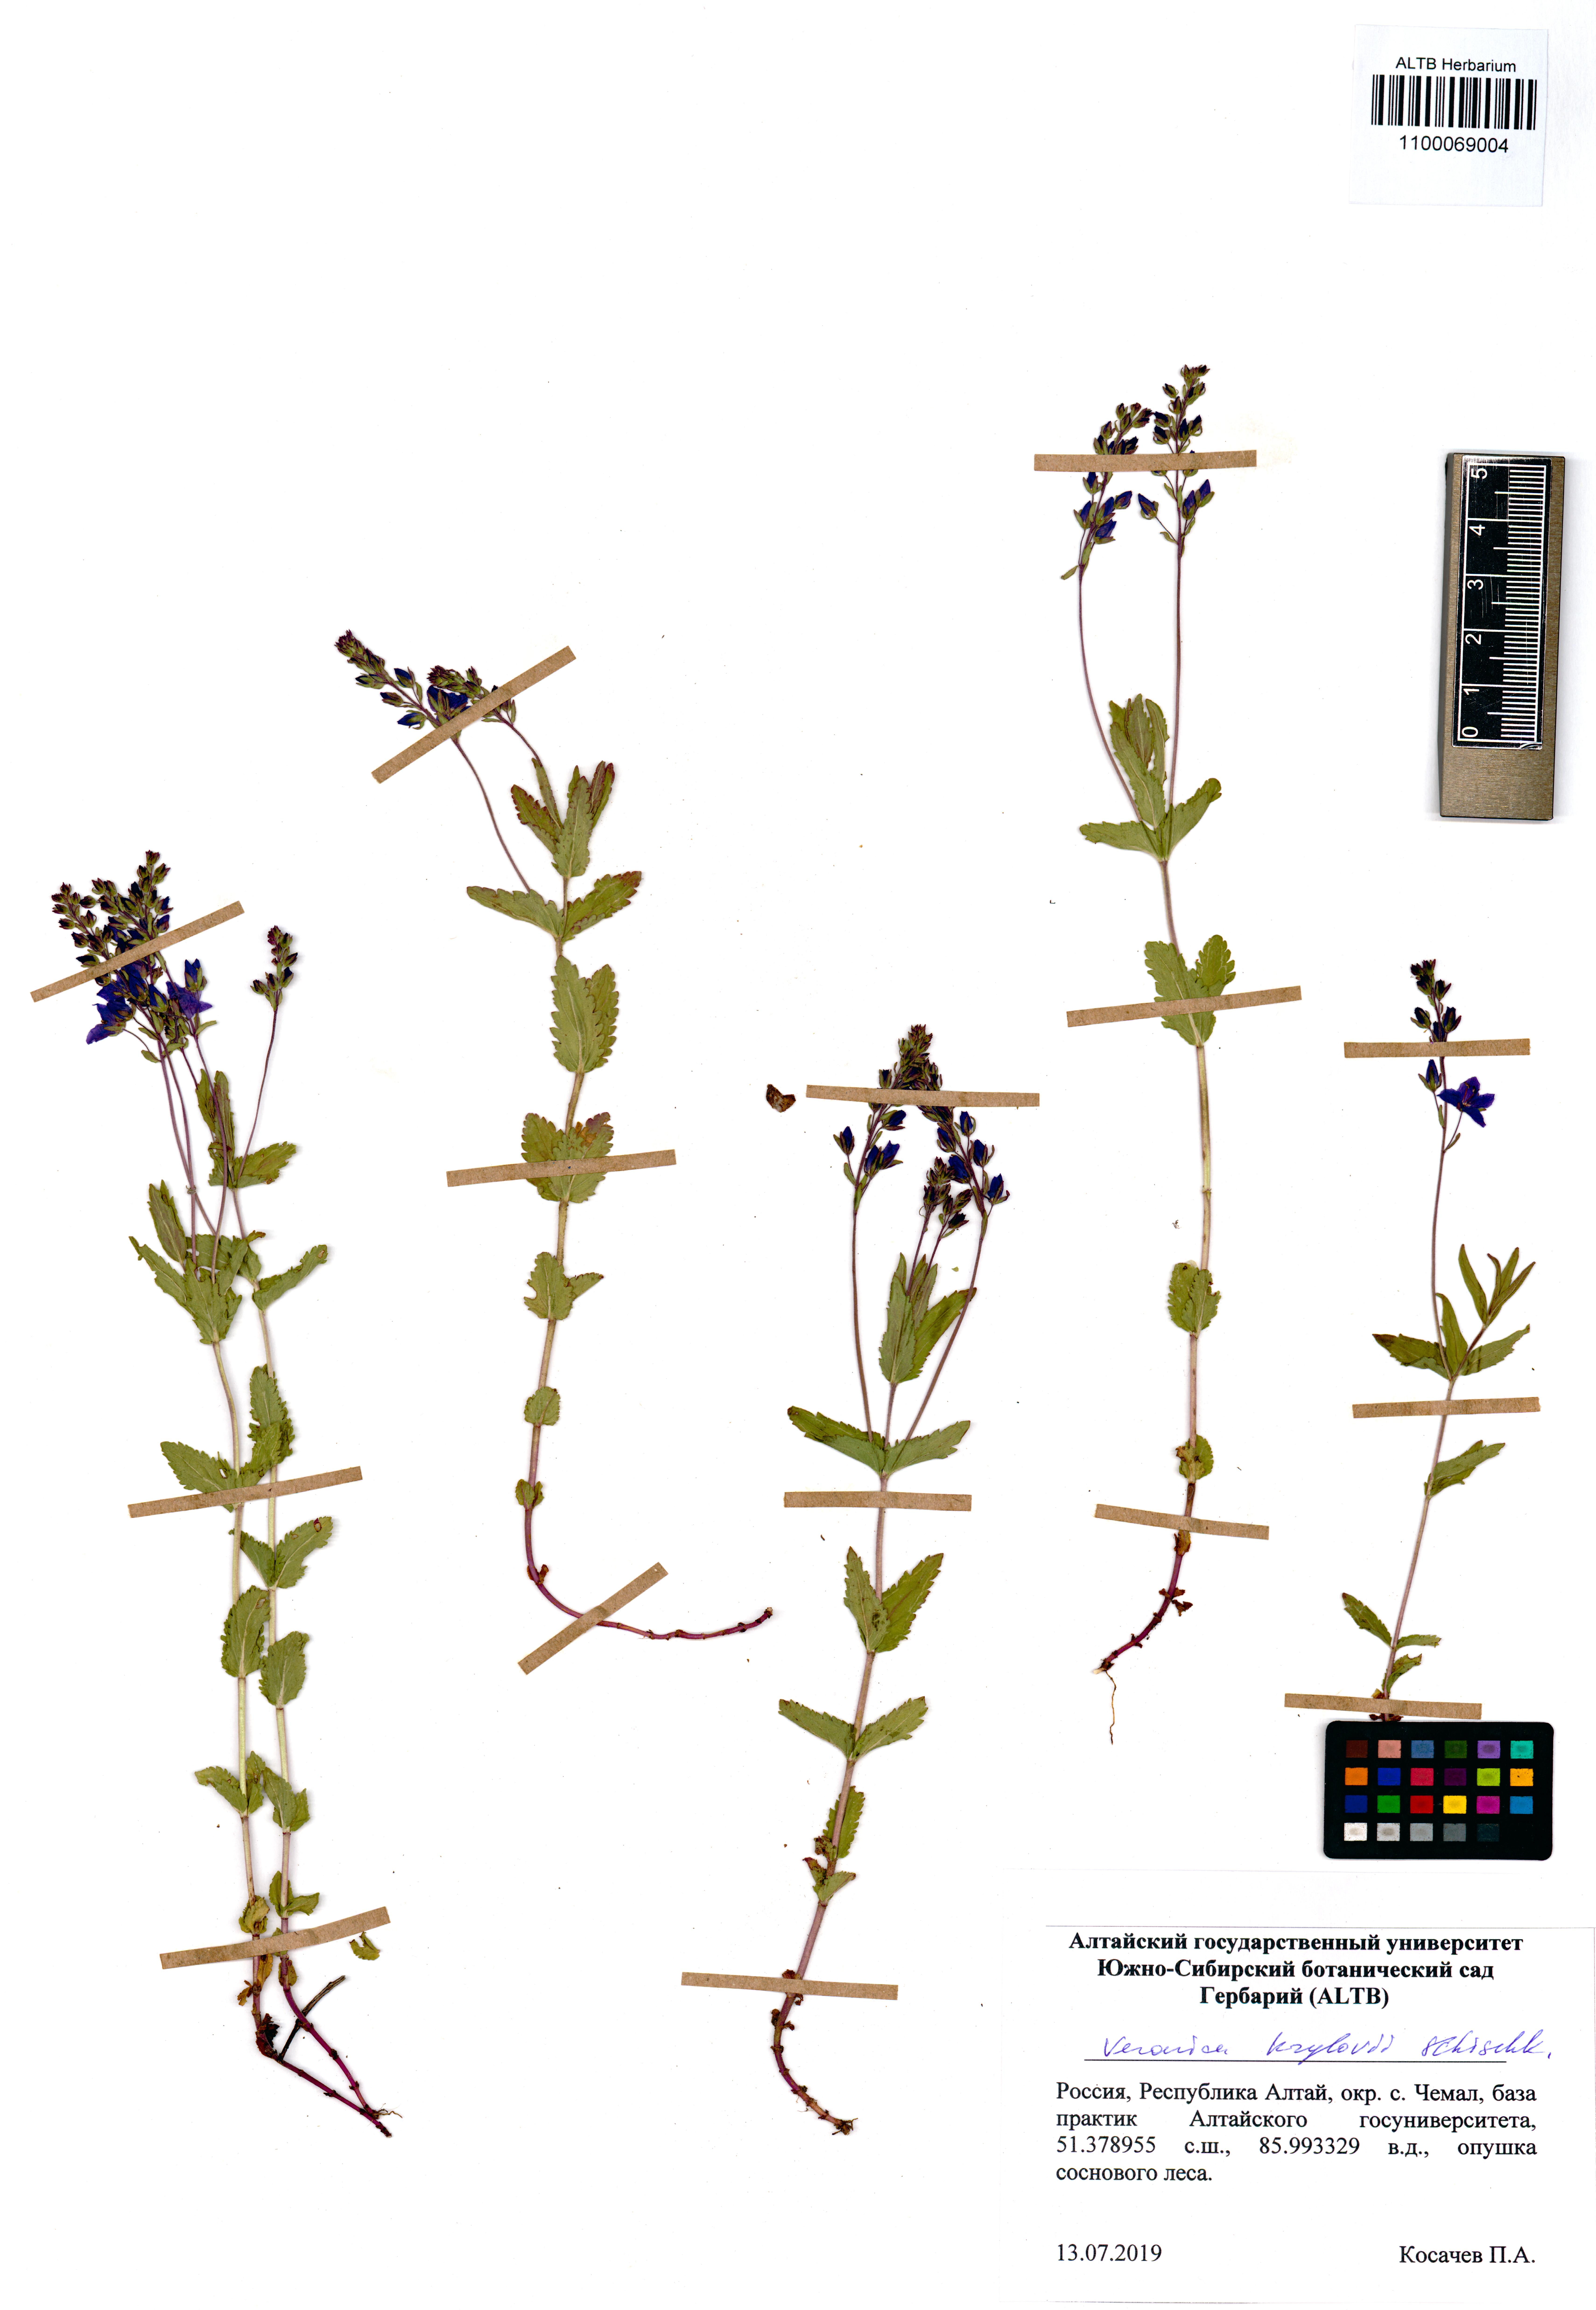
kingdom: Plantae
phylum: Tracheophyta
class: Magnoliopsida
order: Lamiales
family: Plantaginaceae
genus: Veronica
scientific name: Veronica krylovii
